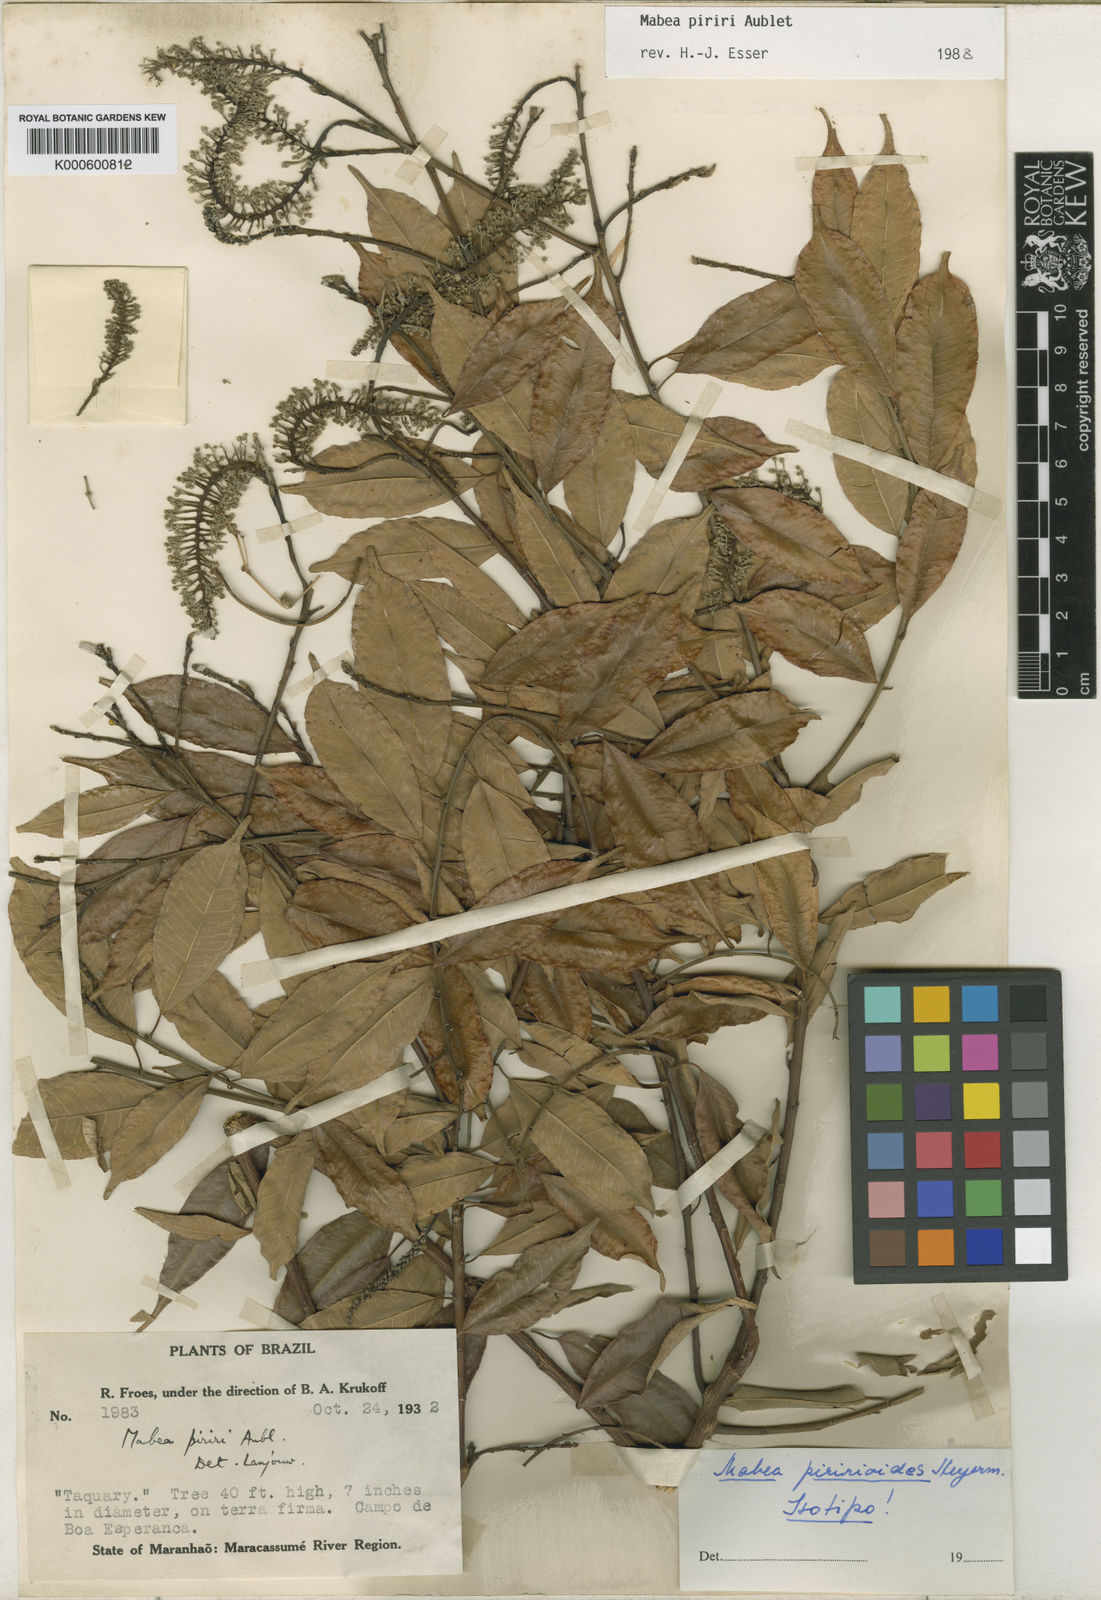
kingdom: Plantae
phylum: Tracheophyta
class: Magnoliopsida
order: Malpighiales
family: Euphorbiaceae
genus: Mabea
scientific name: Mabea piriri
